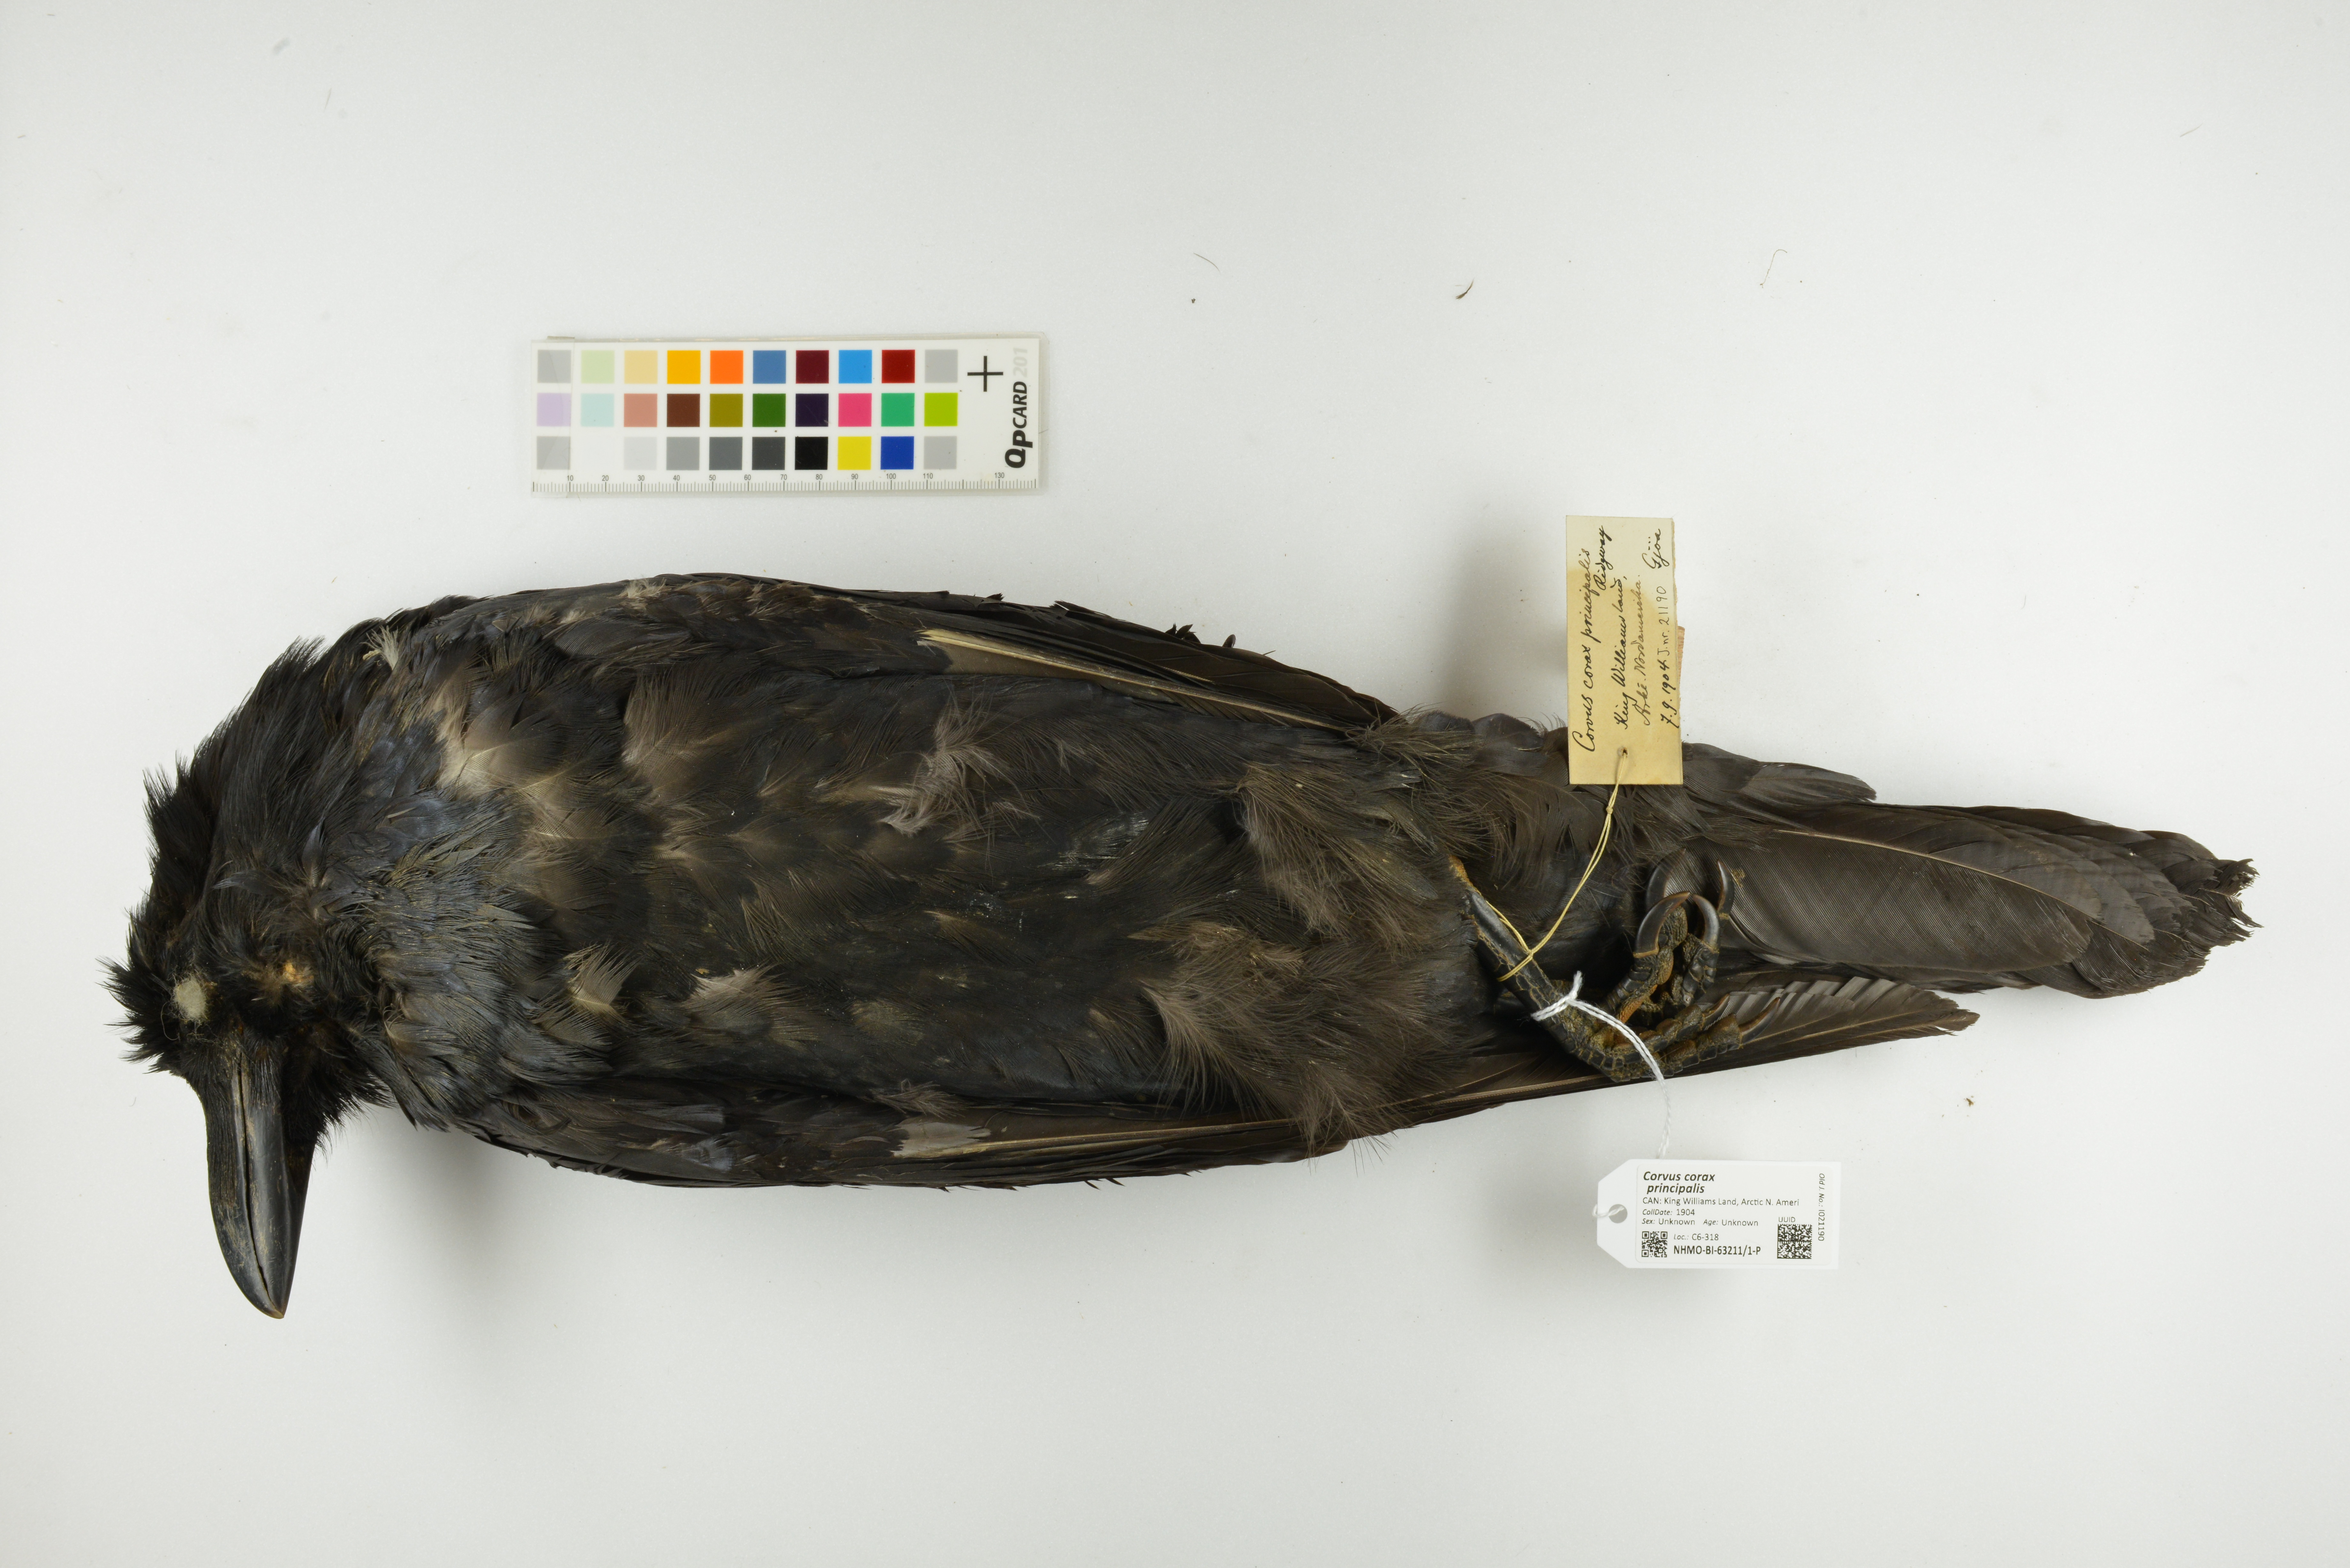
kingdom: Animalia
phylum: Chordata
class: Aves
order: Passeriformes
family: Corvidae
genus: Corvus
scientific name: Corvus corax
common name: Common raven
